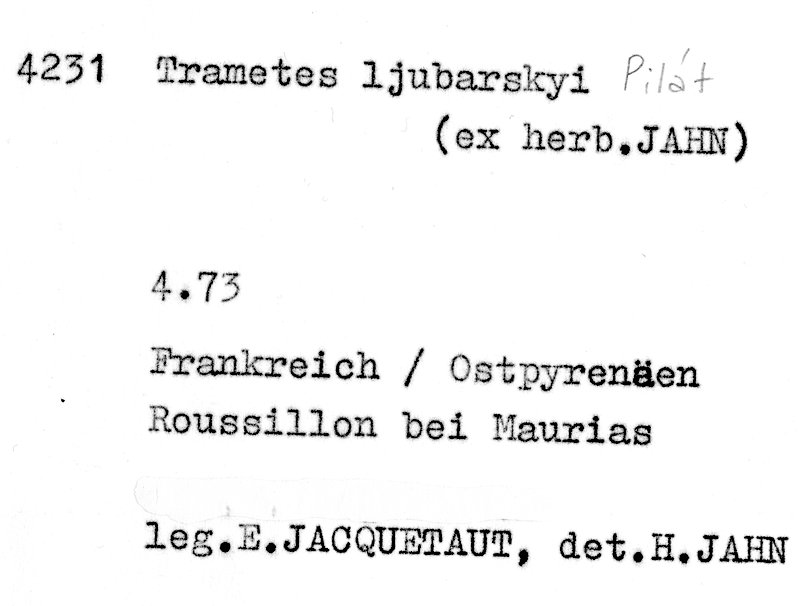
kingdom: Fungi
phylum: Basidiomycota
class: Agaricomycetes
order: Polyporales
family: Polyporaceae
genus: Pilatotrama
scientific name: Pilatotrama ljubarskyi
